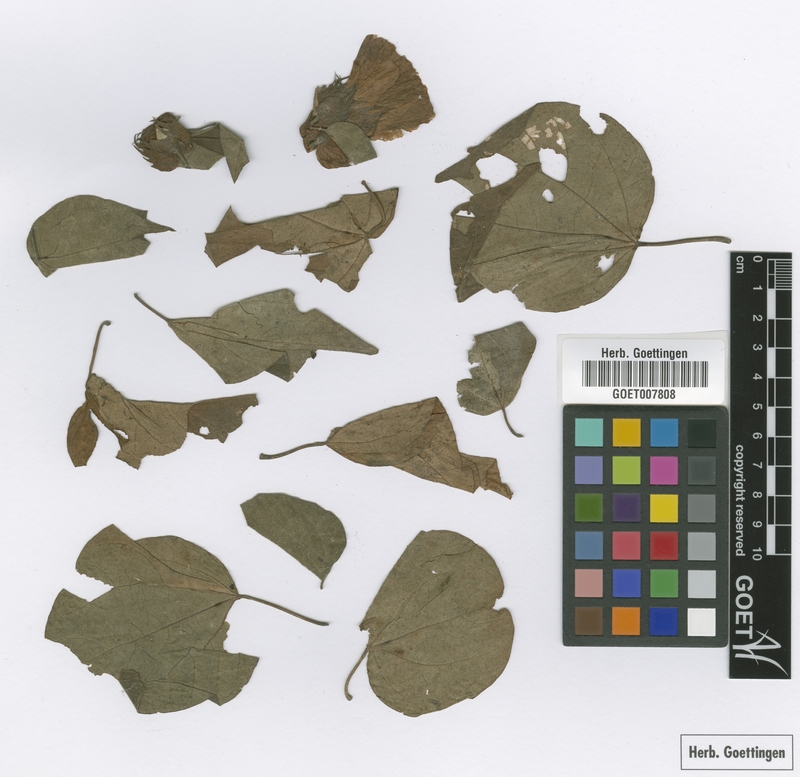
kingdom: Plantae
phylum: Tracheophyta
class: Magnoliopsida
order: Malvales
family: Malvaceae
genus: Gossypium
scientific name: Gossypium klotzschianum
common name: Galapagos cotton
